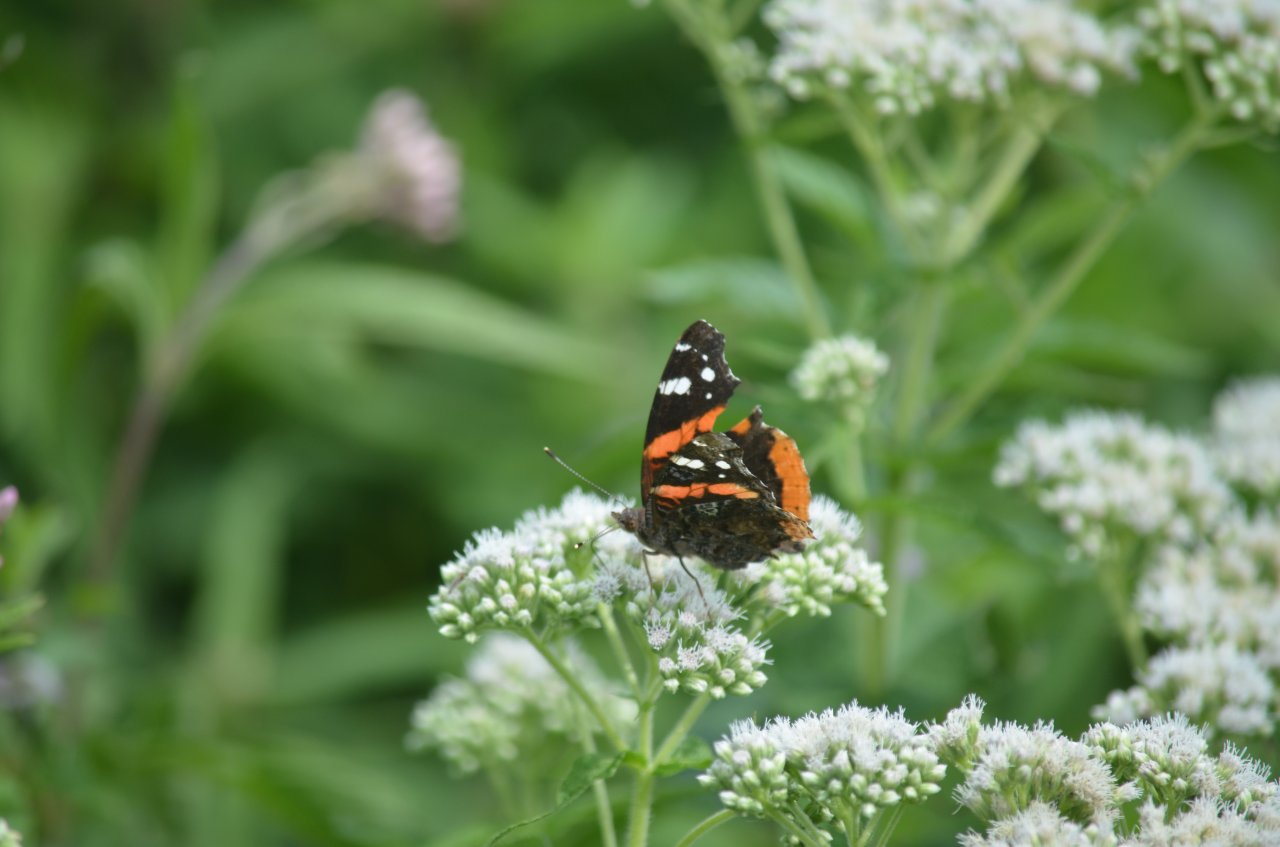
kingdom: Animalia
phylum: Arthropoda
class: Insecta
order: Lepidoptera
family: Nymphalidae
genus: Vanessa
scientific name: Vanessa atalanta
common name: Red Admiral
